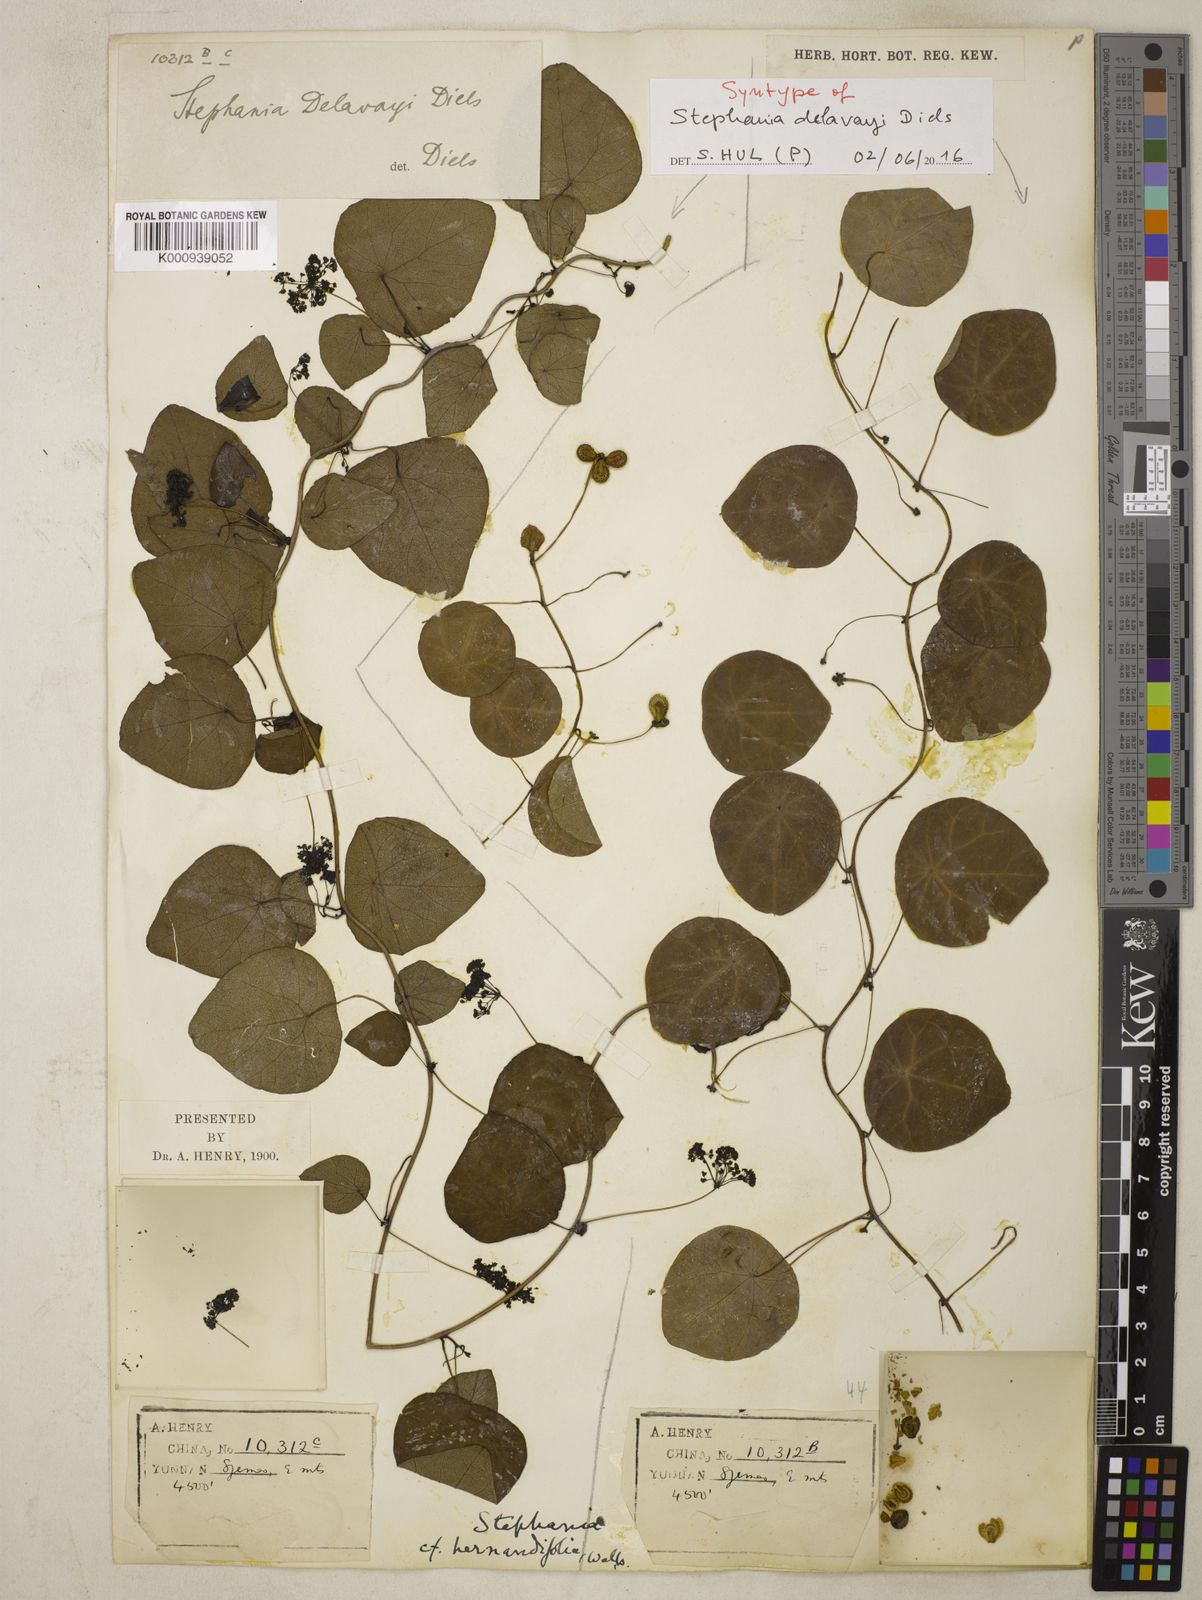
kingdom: Plantae
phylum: Tracheophyta
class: Magnoliopsida
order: Ranunculales
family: Menispermaceae
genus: Stephania
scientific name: Stephania delavayi
